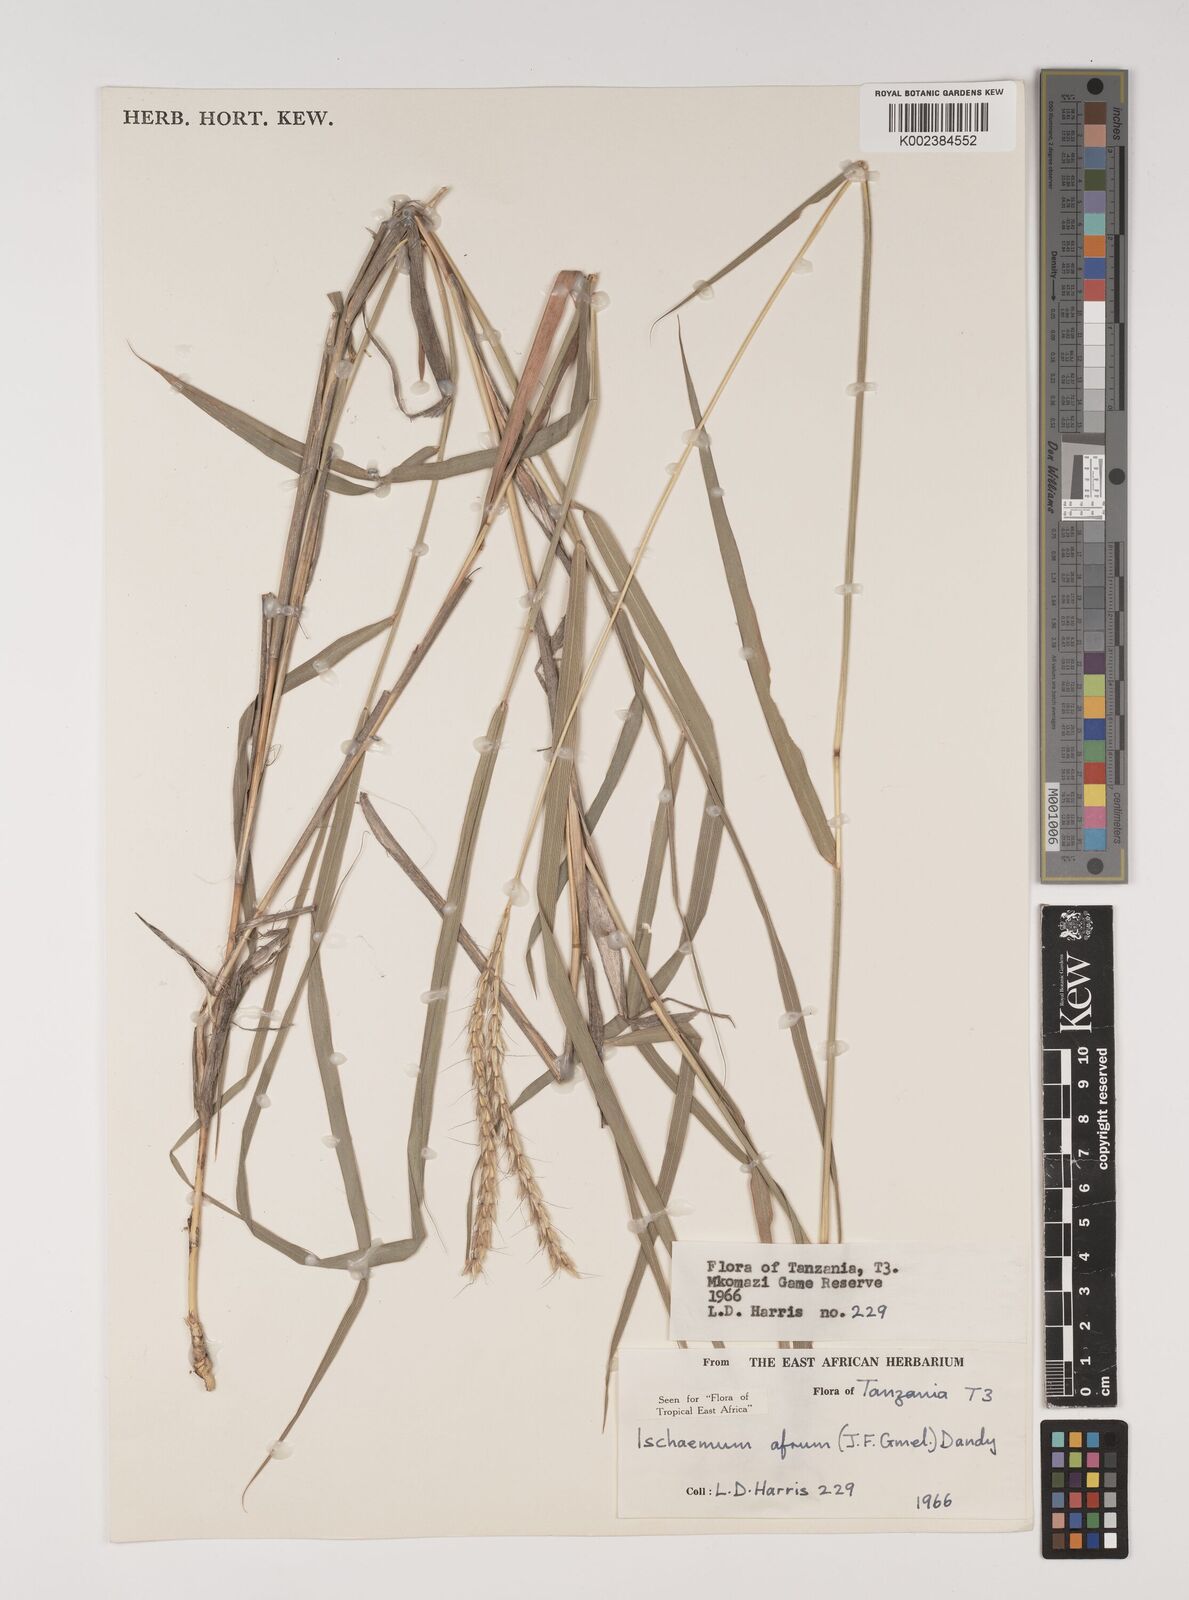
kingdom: Plantae
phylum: Tracheophyta
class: Liliopsida
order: Poales
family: Poaceae
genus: Ischaemum
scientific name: Ischaemum afrum
